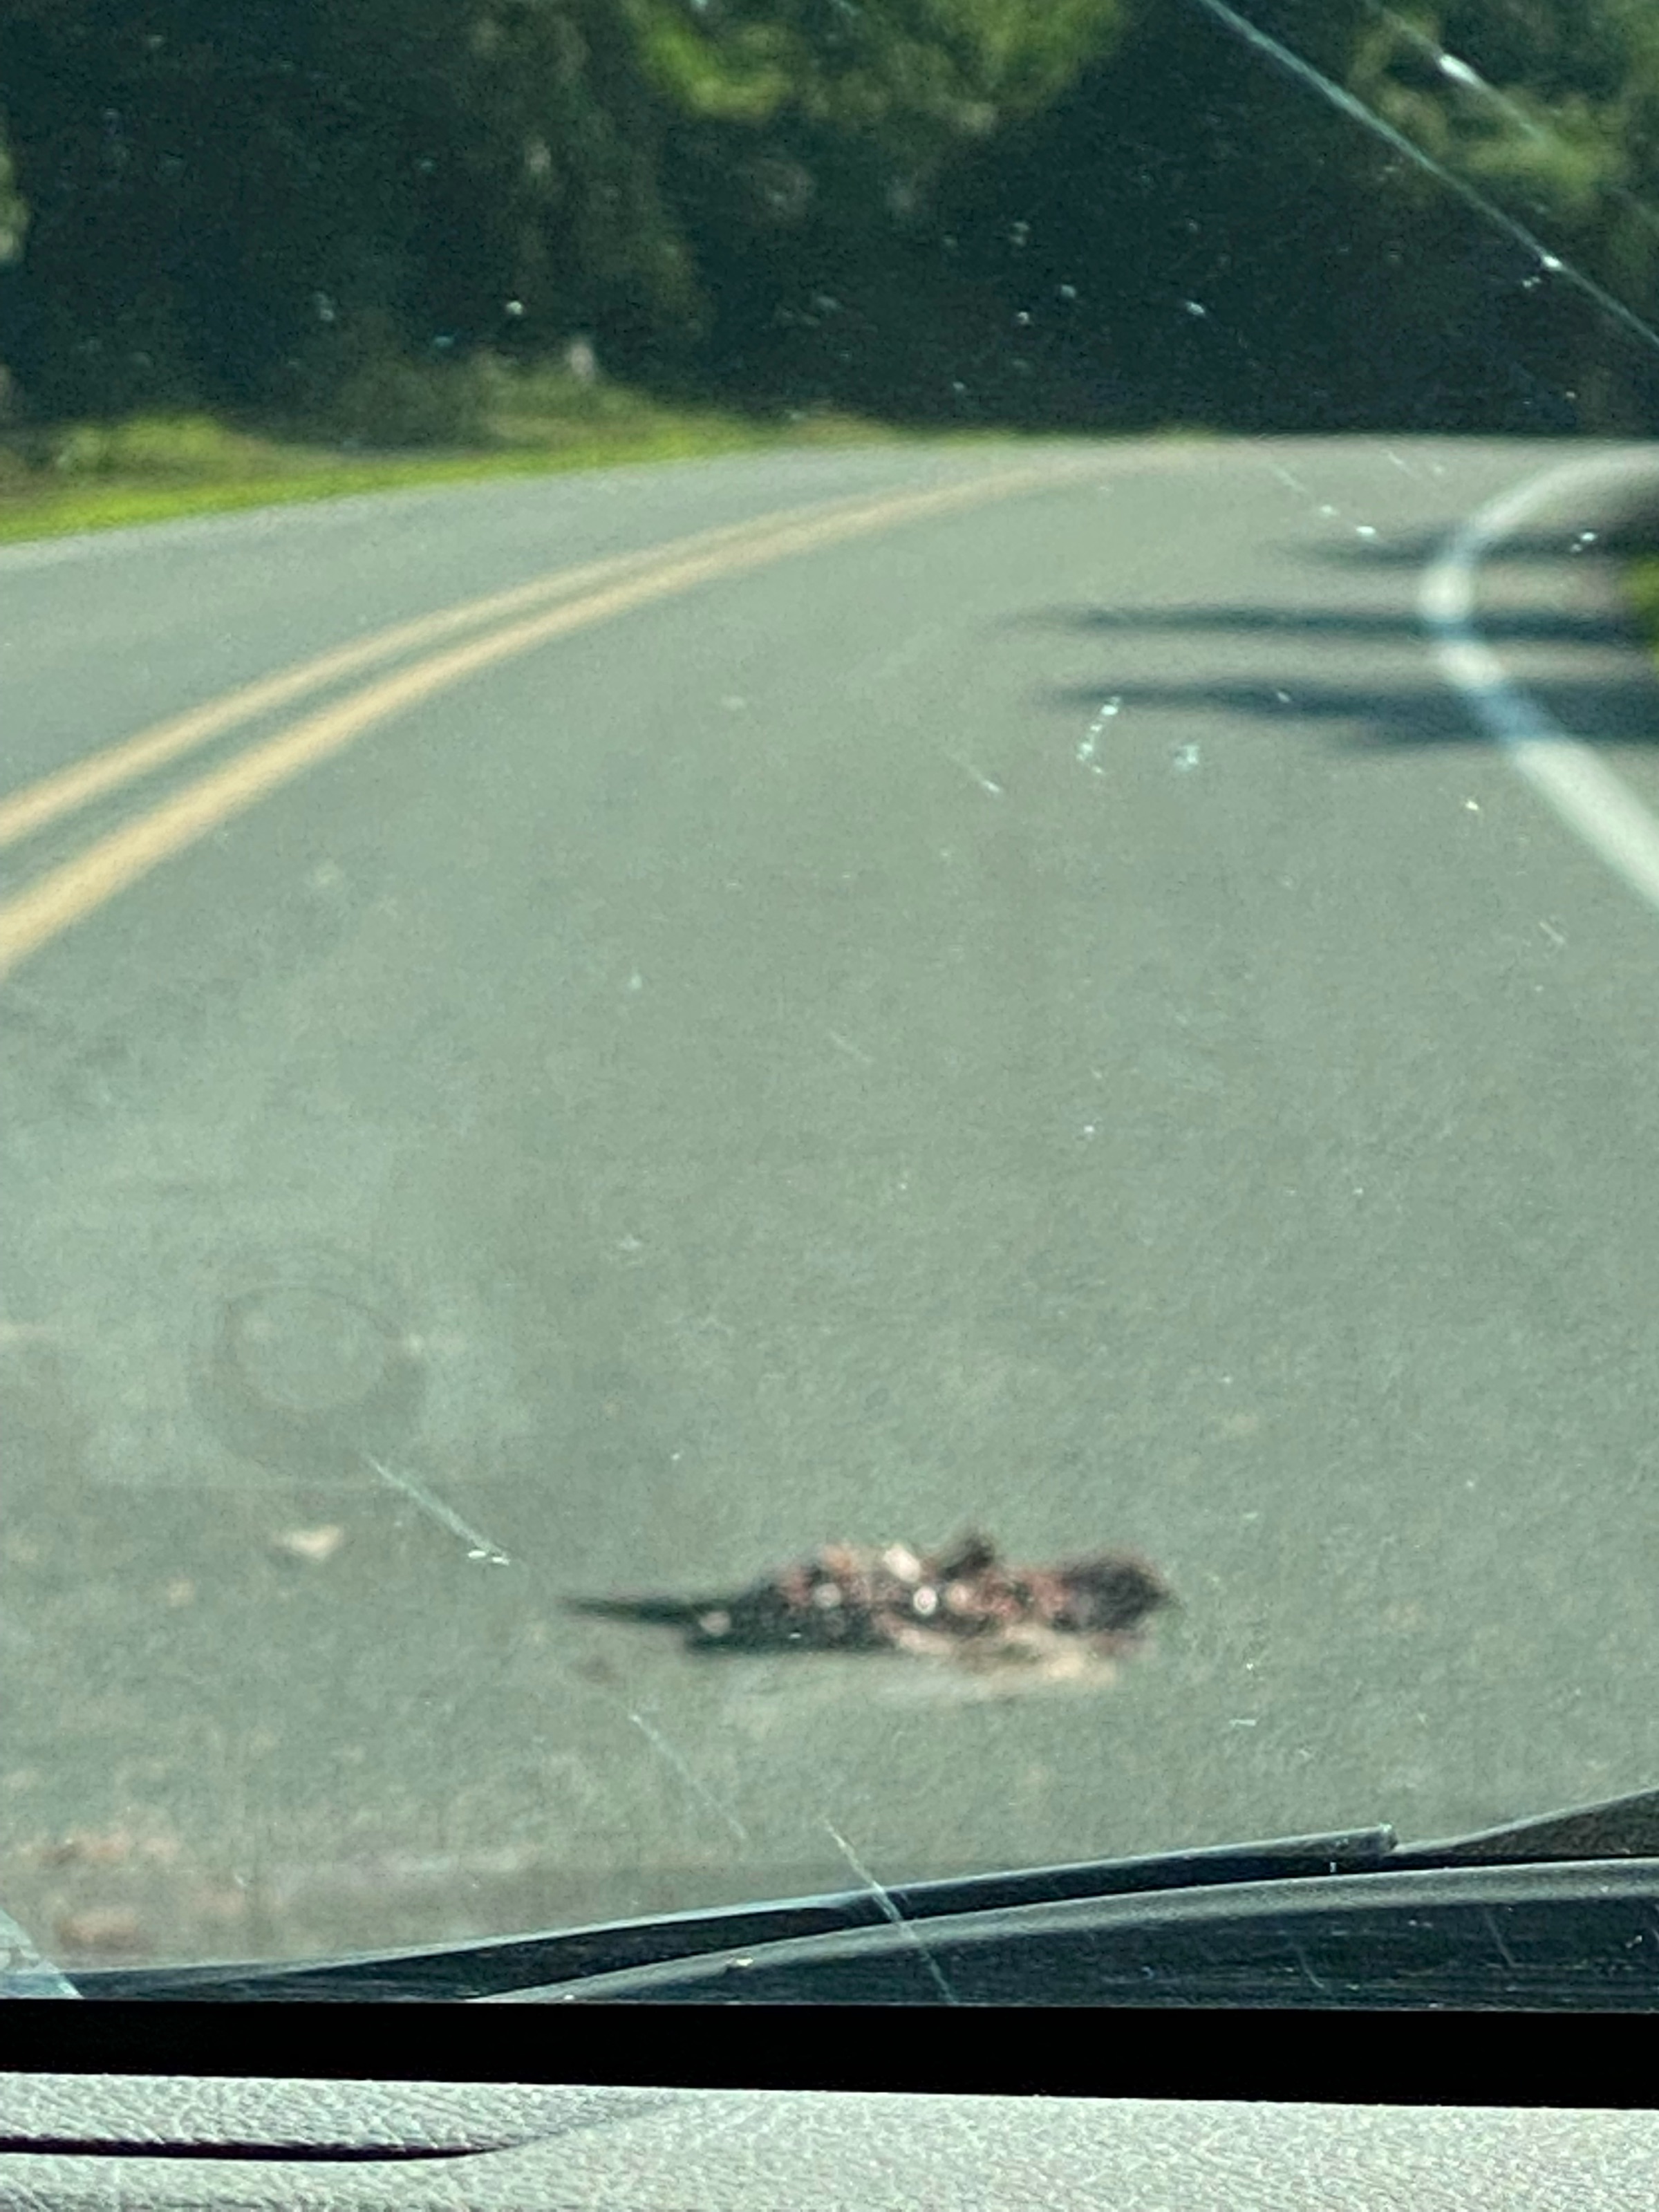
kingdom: Animalia
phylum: Chordata
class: Mammalia
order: Cingulata
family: Dasypodidae
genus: Dasypus
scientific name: Dasypus novemcinctus
